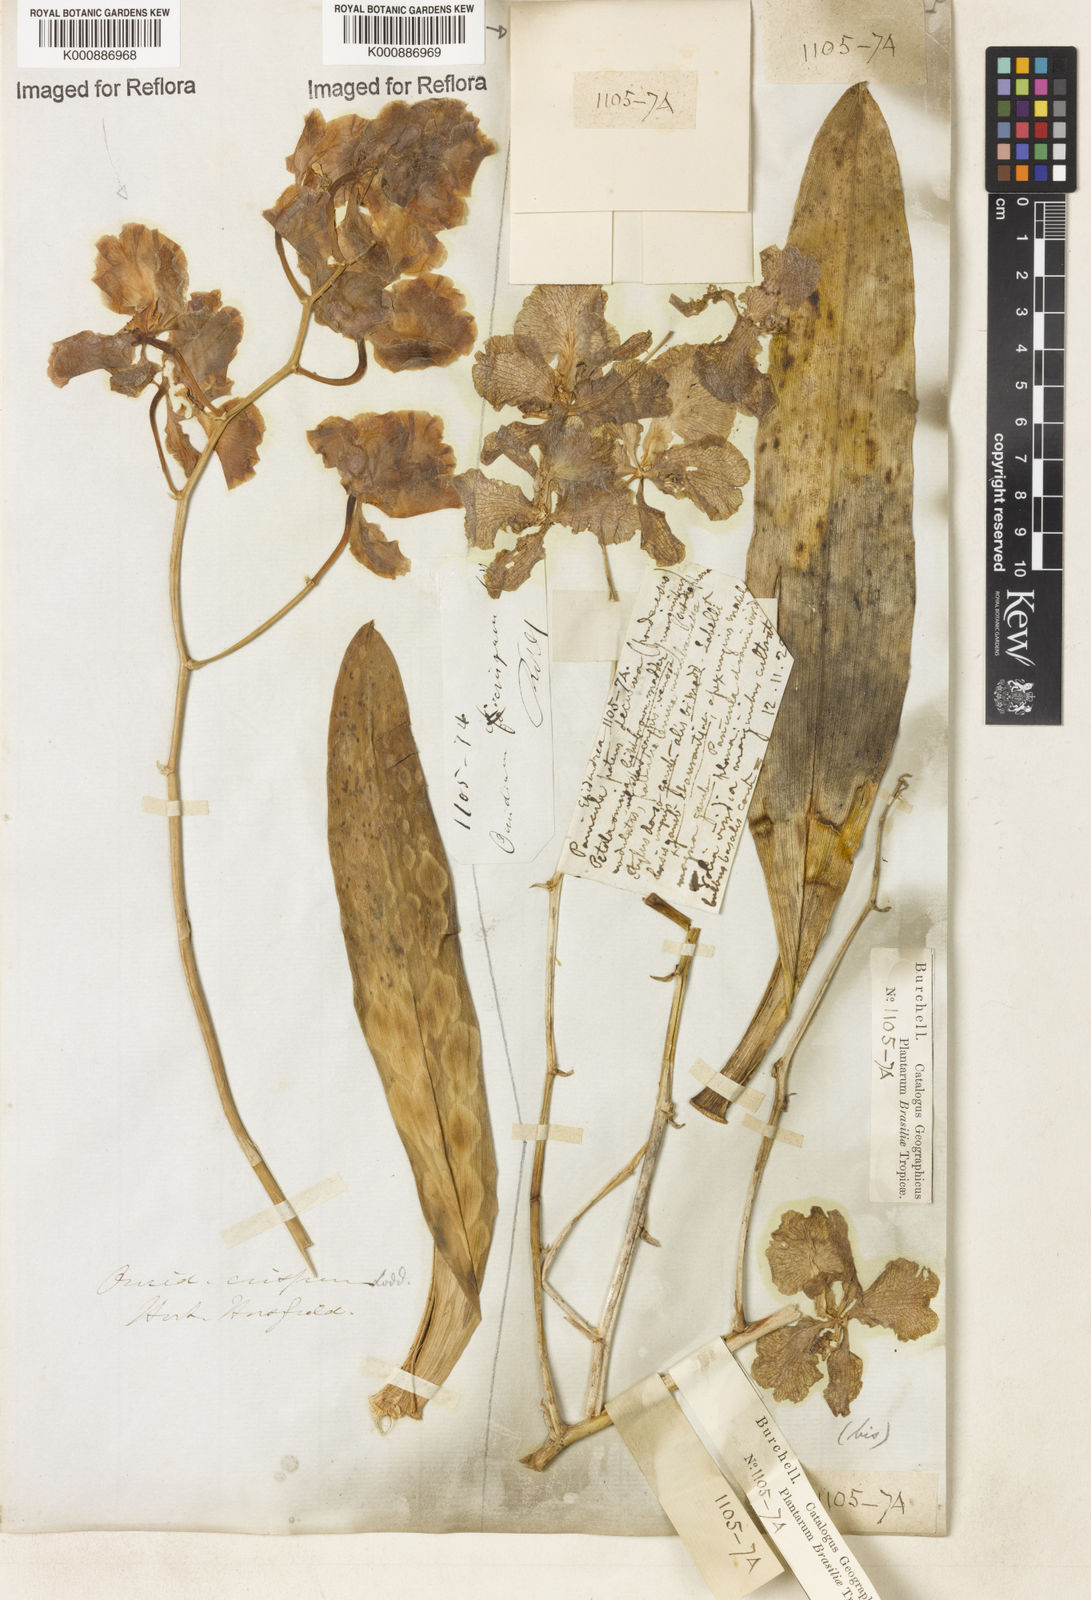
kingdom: Plantae
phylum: Tracheophyta
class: Liliopsida
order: Asparagales
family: Orchidaceae
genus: Gomesa
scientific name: Gomesa imperatoris-maximiliani
